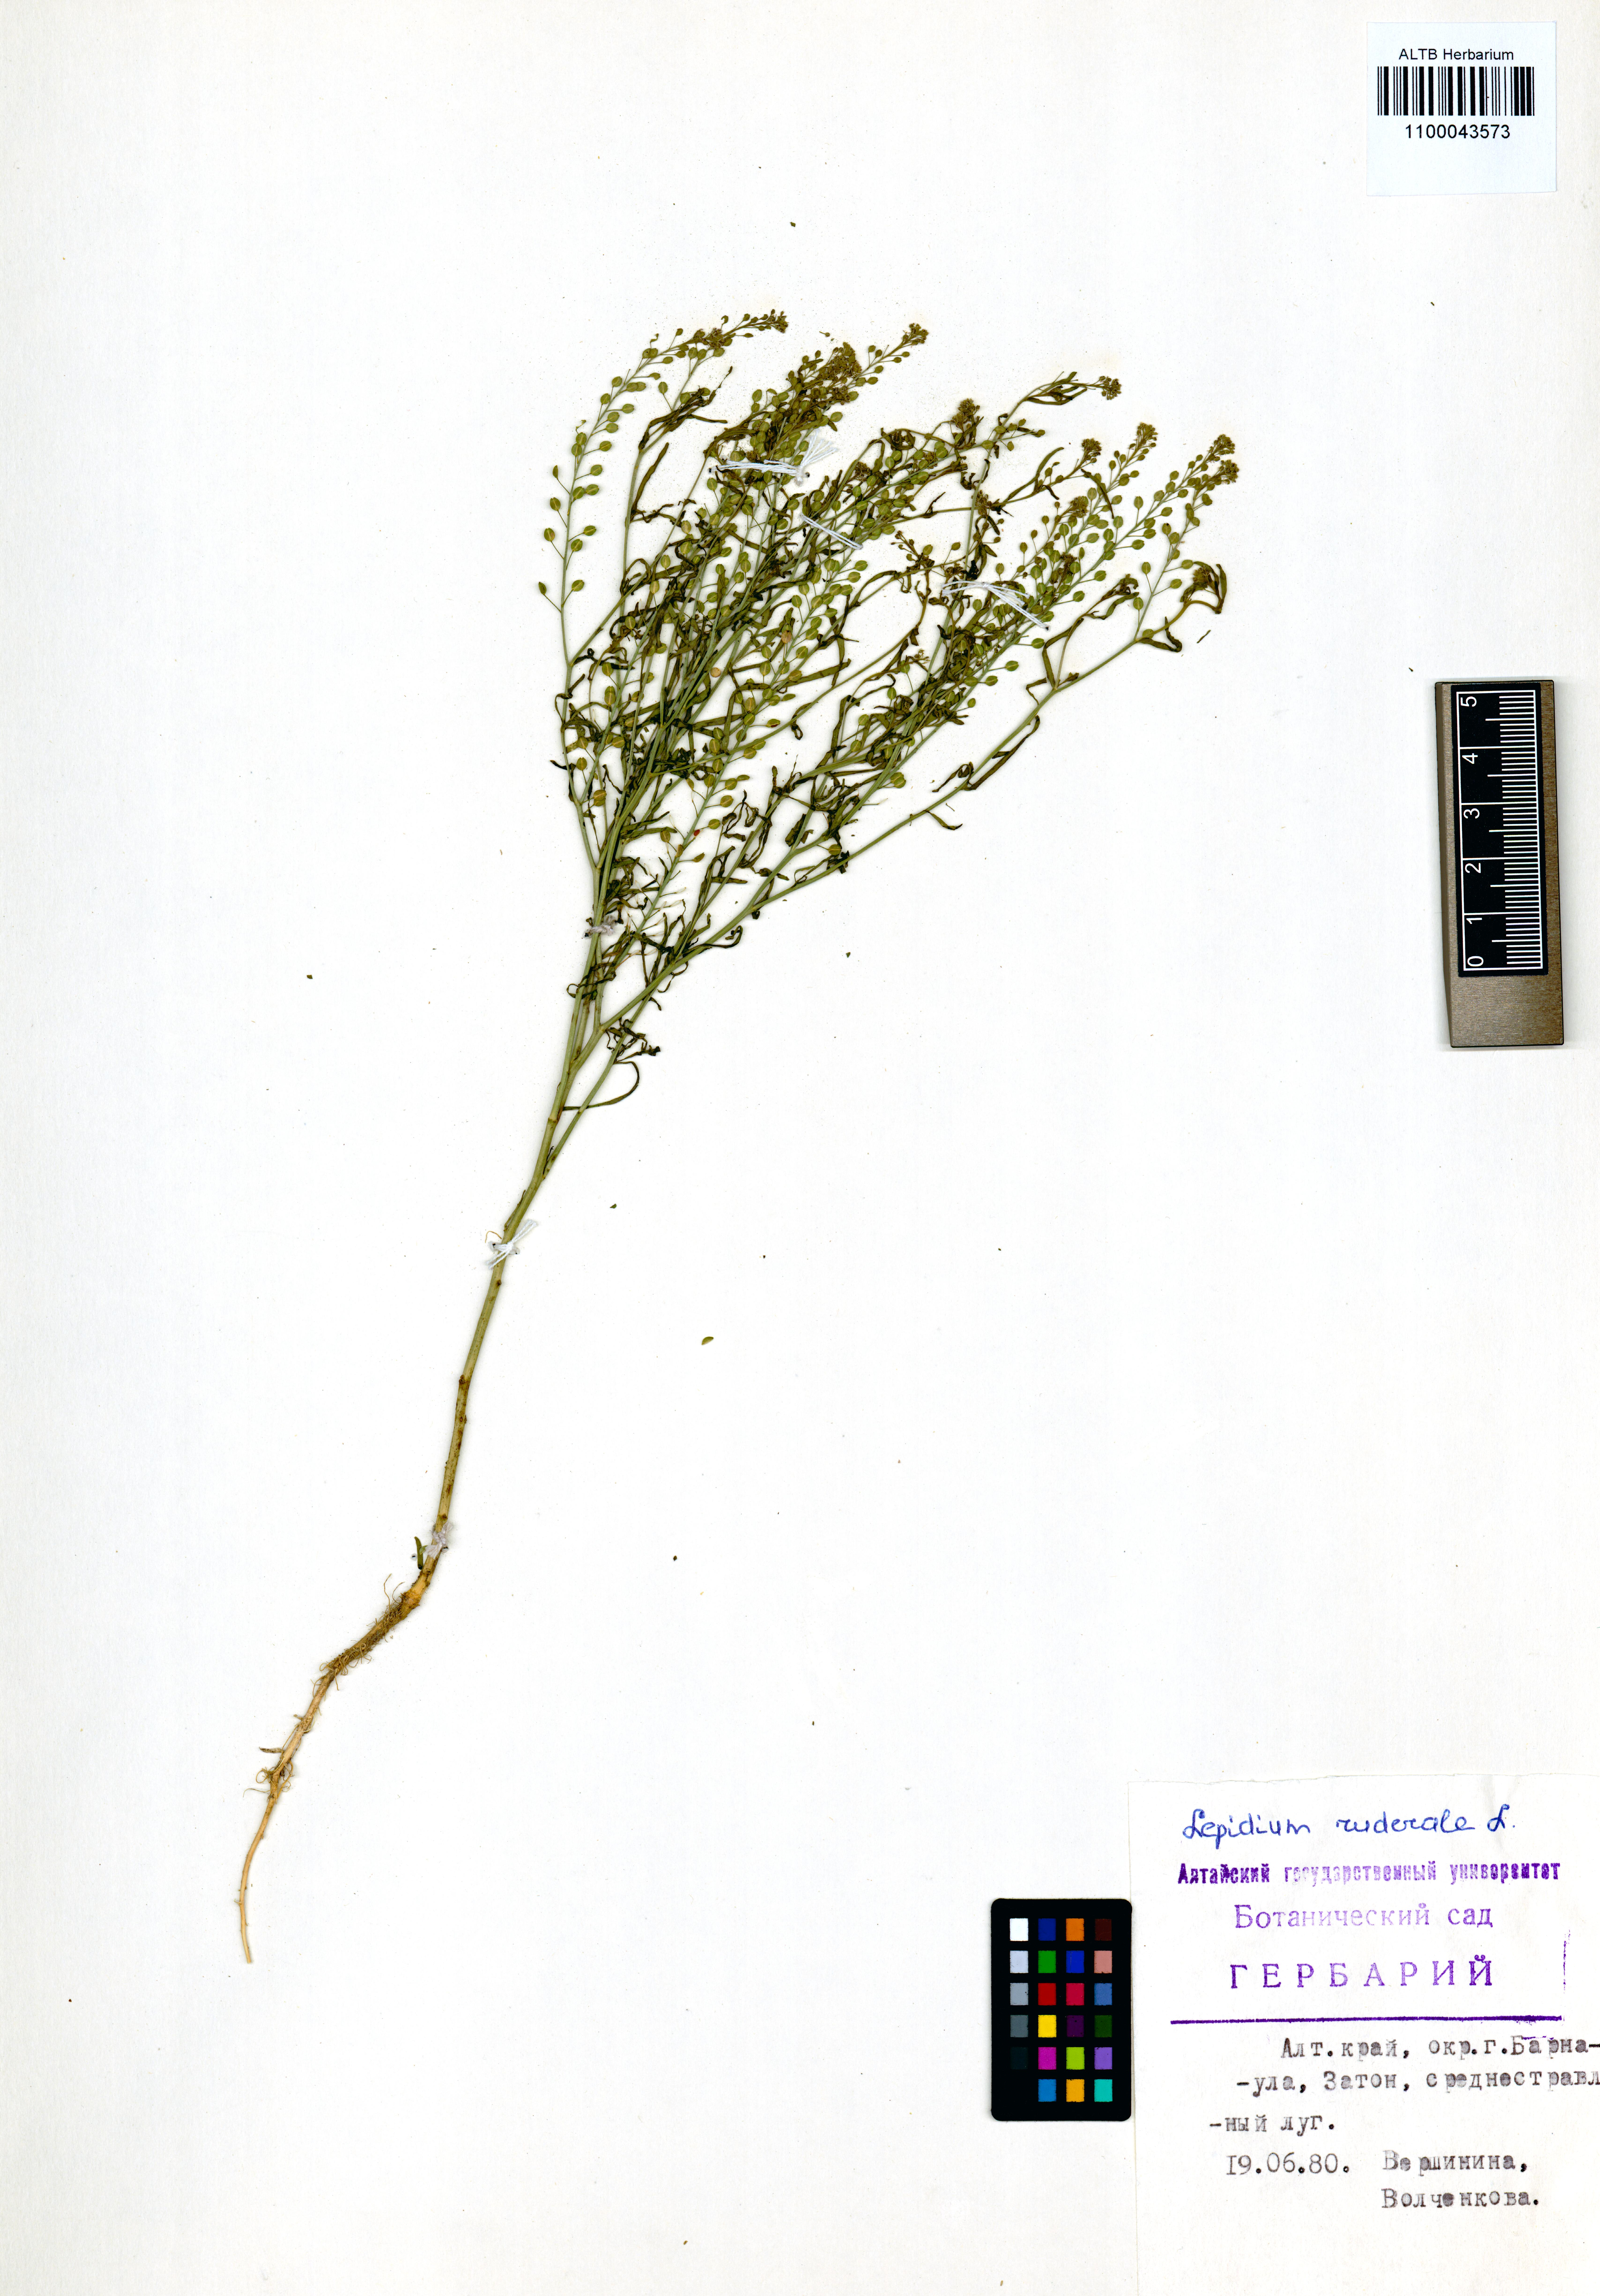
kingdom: Plantae
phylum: Tracheophyta
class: Magnoliopsida
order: Brassicales
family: Brassicaceae
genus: Lepidium
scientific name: Lepidium ruderale
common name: Narrow-leaved pepperwort
